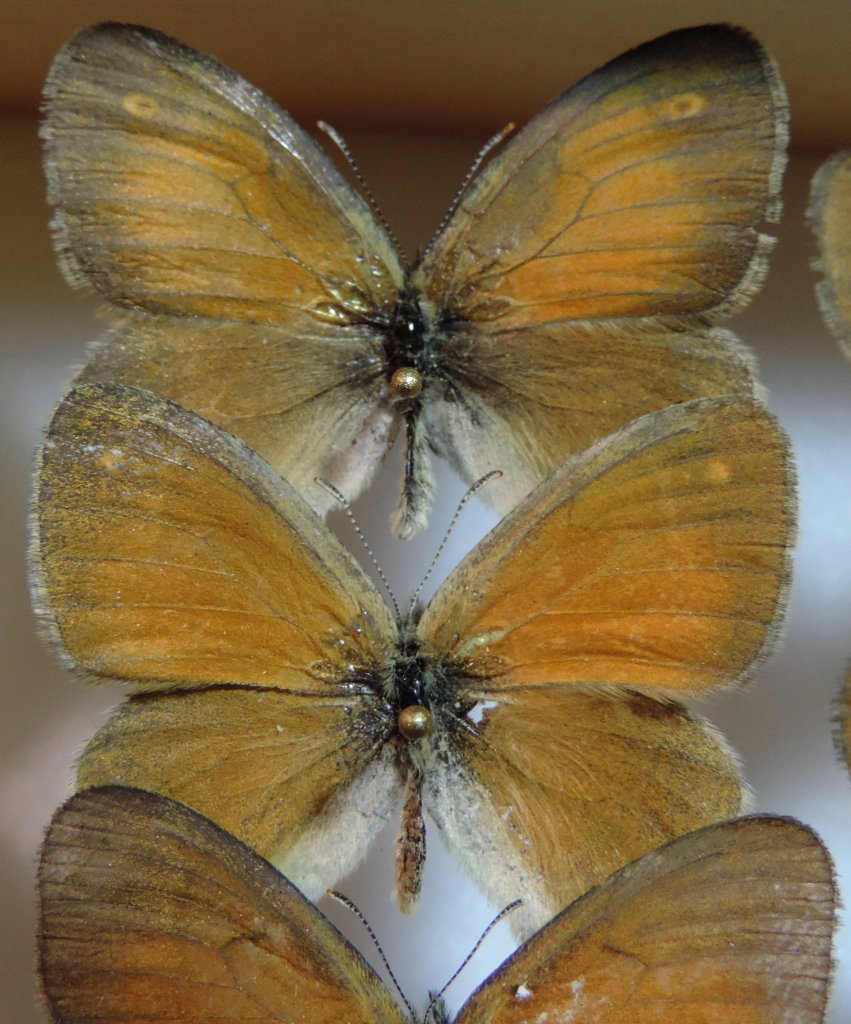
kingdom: Animalia
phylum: Arthropoda
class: Insecta
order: Lepidoptera
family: Nymphalidae
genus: Coenonympha
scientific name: Coenonympha tullia
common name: Large Heath
